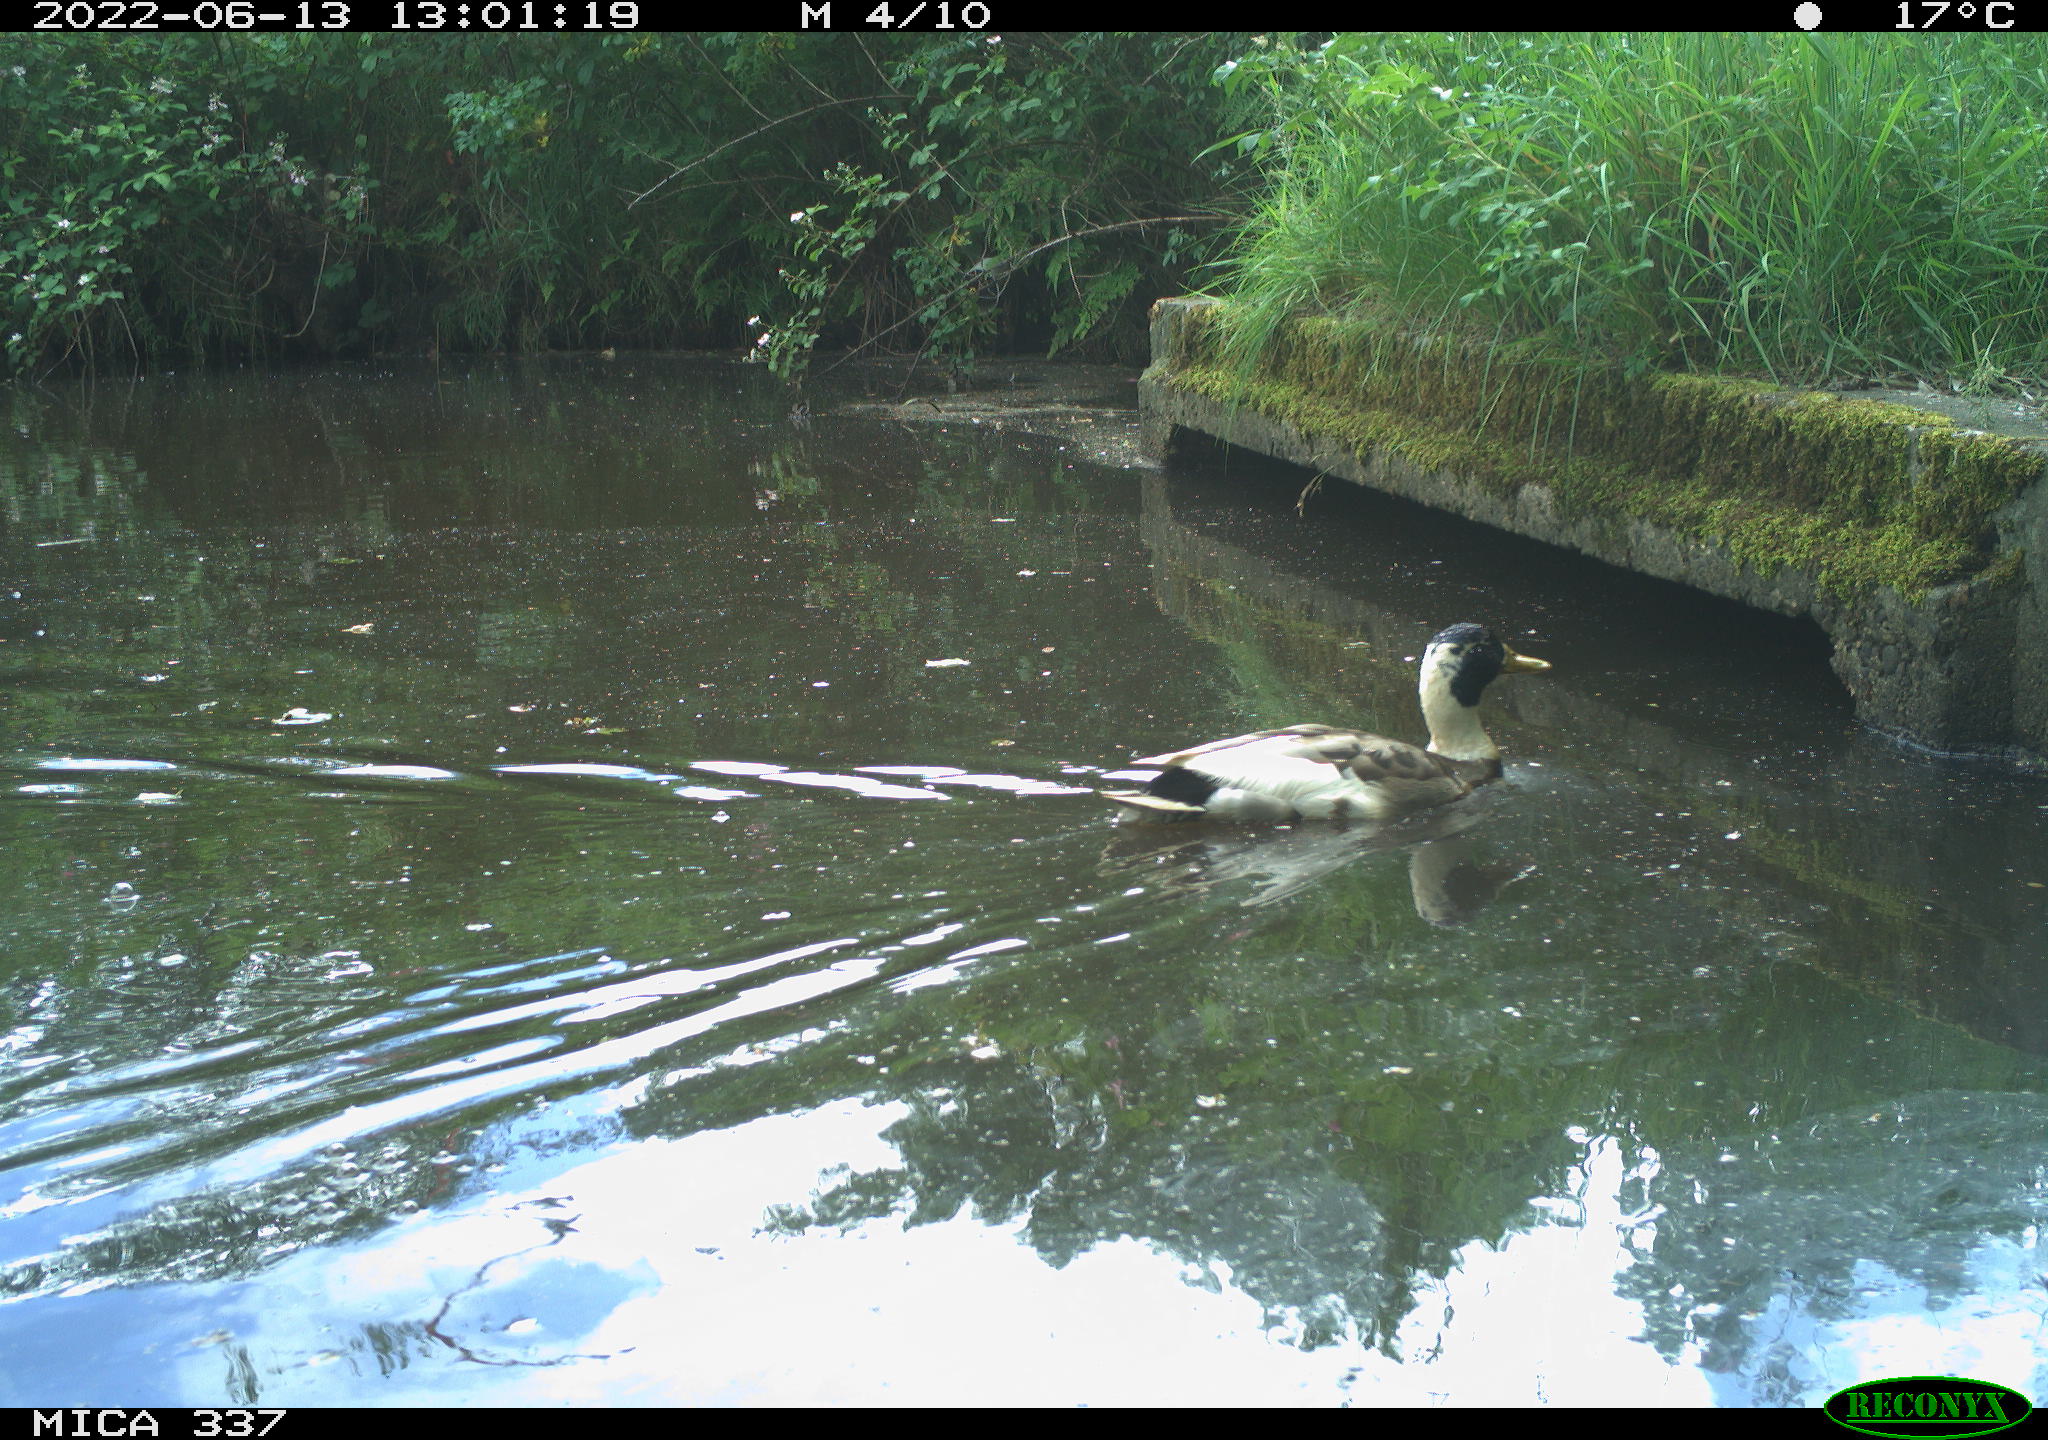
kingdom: Animalia
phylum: Chordata
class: Aves
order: Anseriformes
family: Anatidae
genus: Anas
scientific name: Anas platyrhynchos
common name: Mallard
